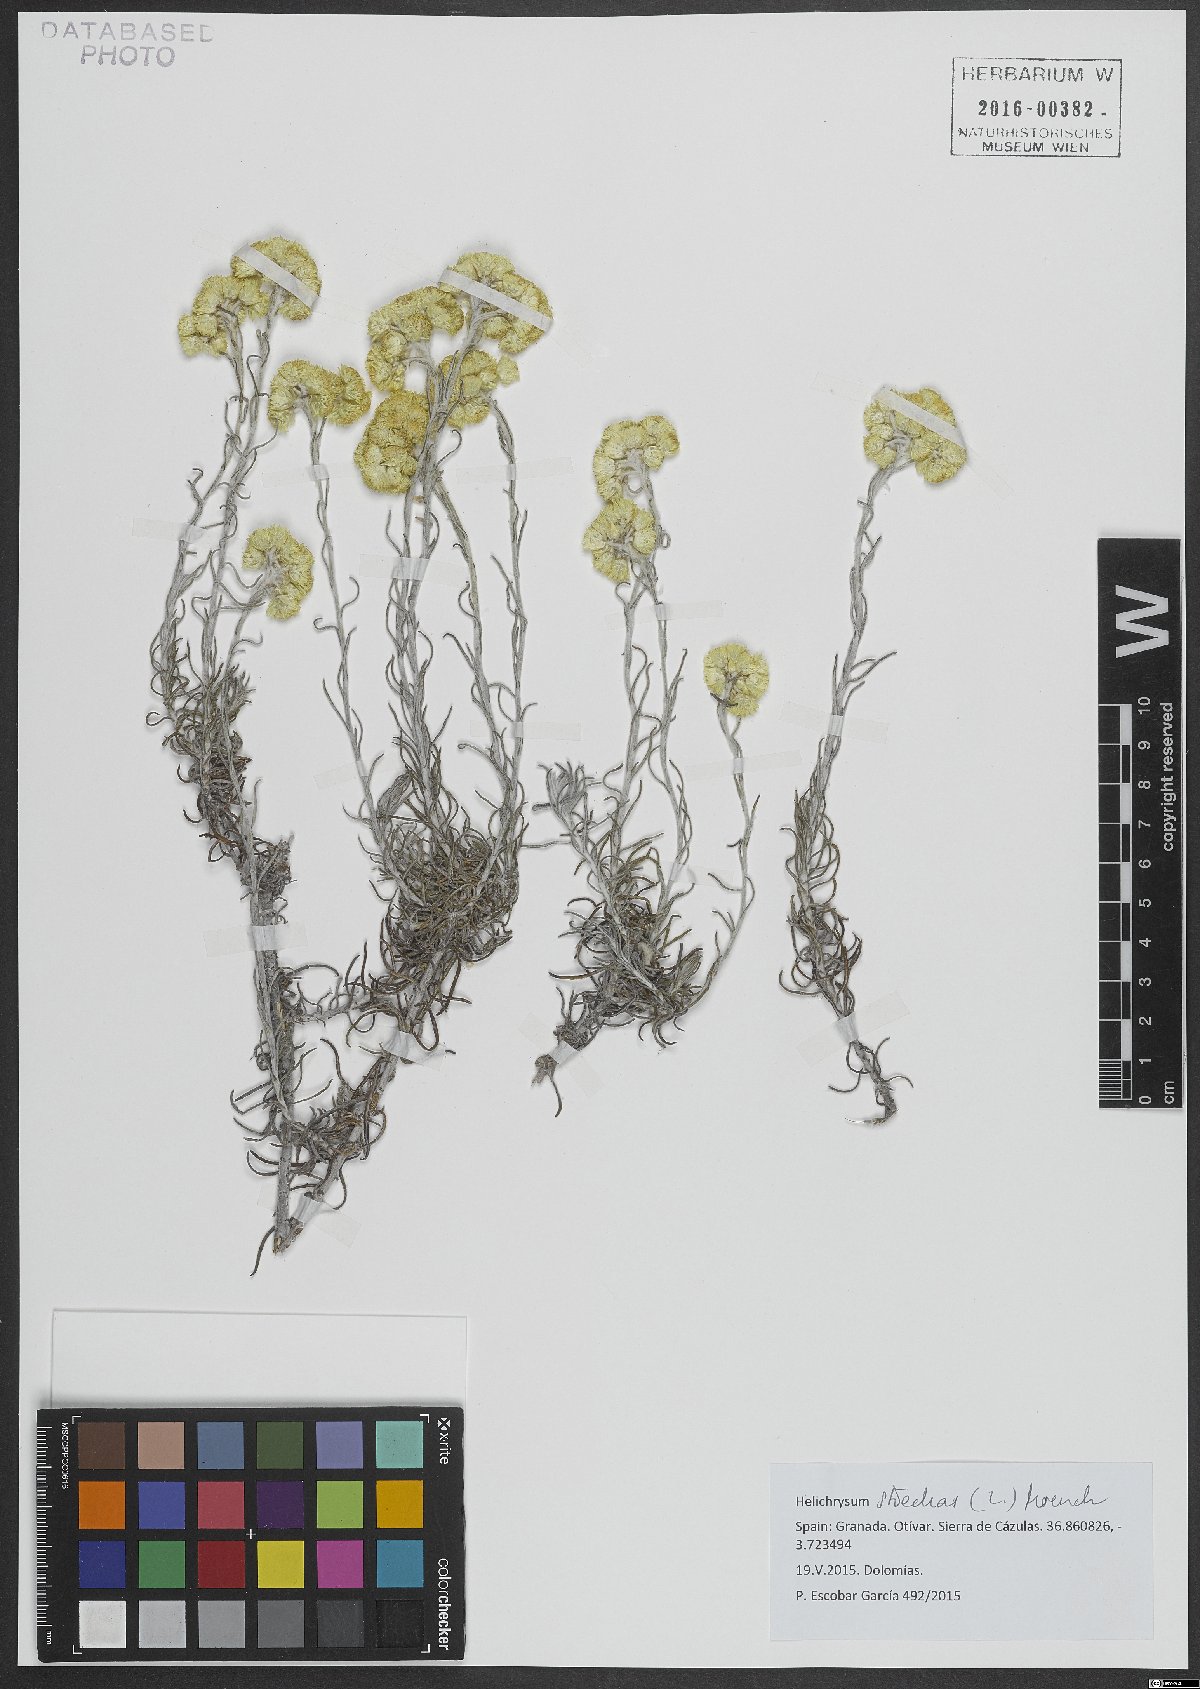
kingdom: Plantae
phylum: Tracheophyta
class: Magnoliopsida
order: Asterales
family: Asteraceae
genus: Helichrysum
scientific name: Helichrysum stoechas
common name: Goldilocks
